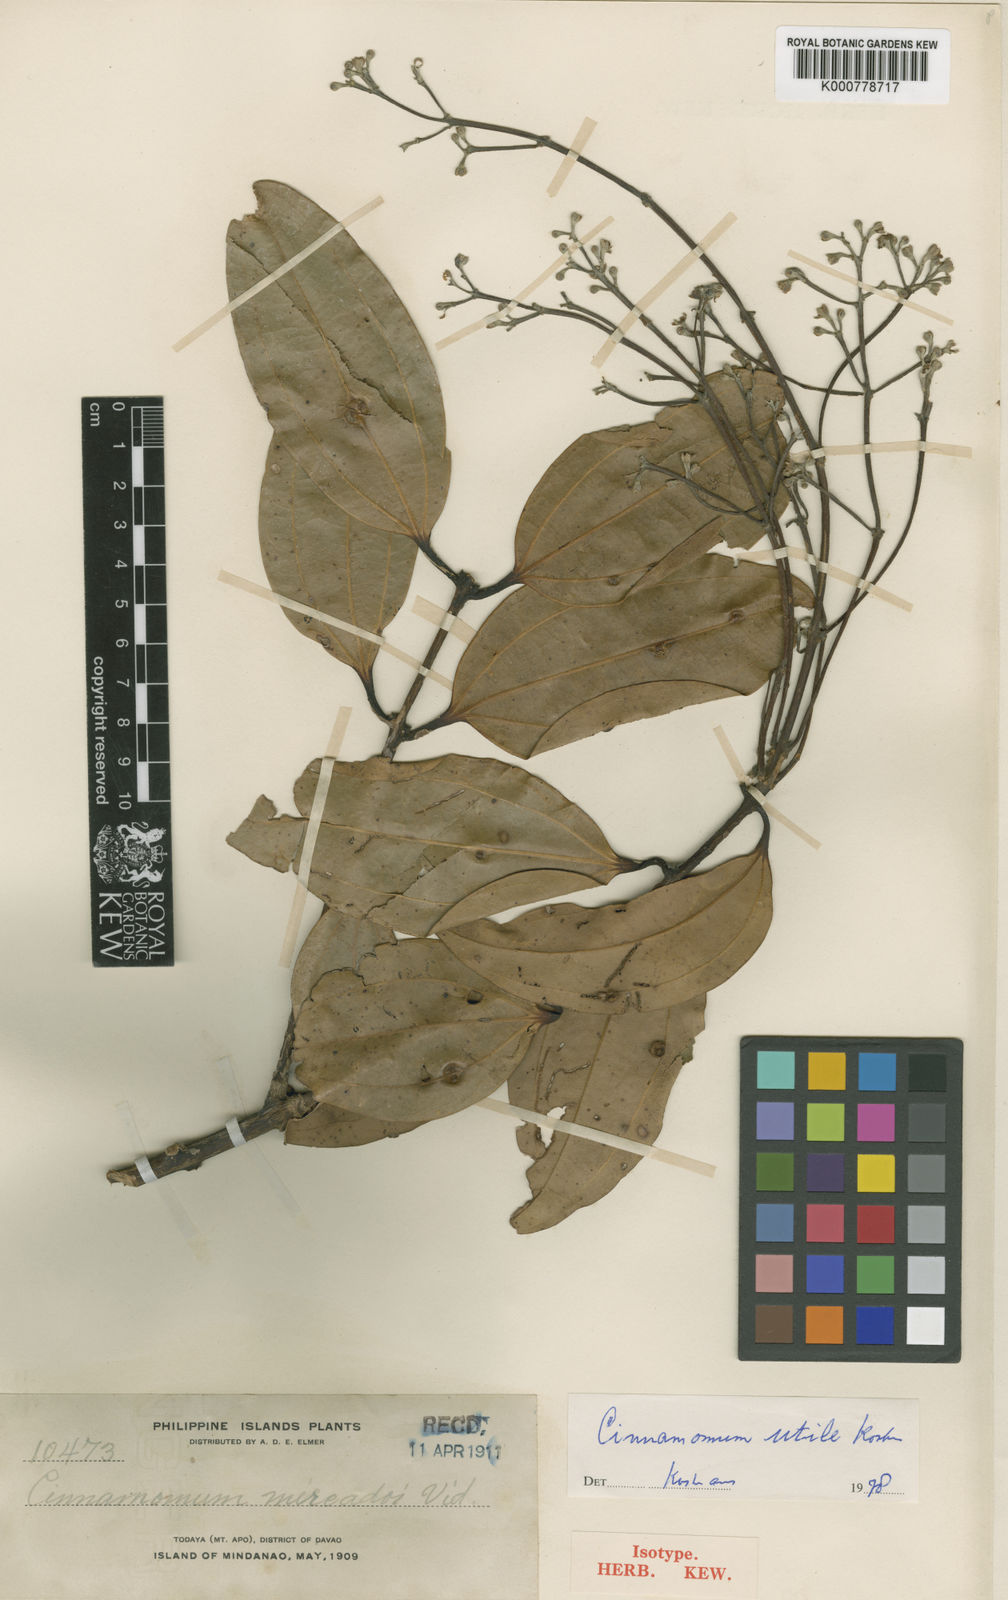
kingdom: Plantae
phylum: Tracheophyta
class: Magnoliopsida
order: Laurales
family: Lauraceae
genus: Cinnamomum
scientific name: Cinnamomum utile
